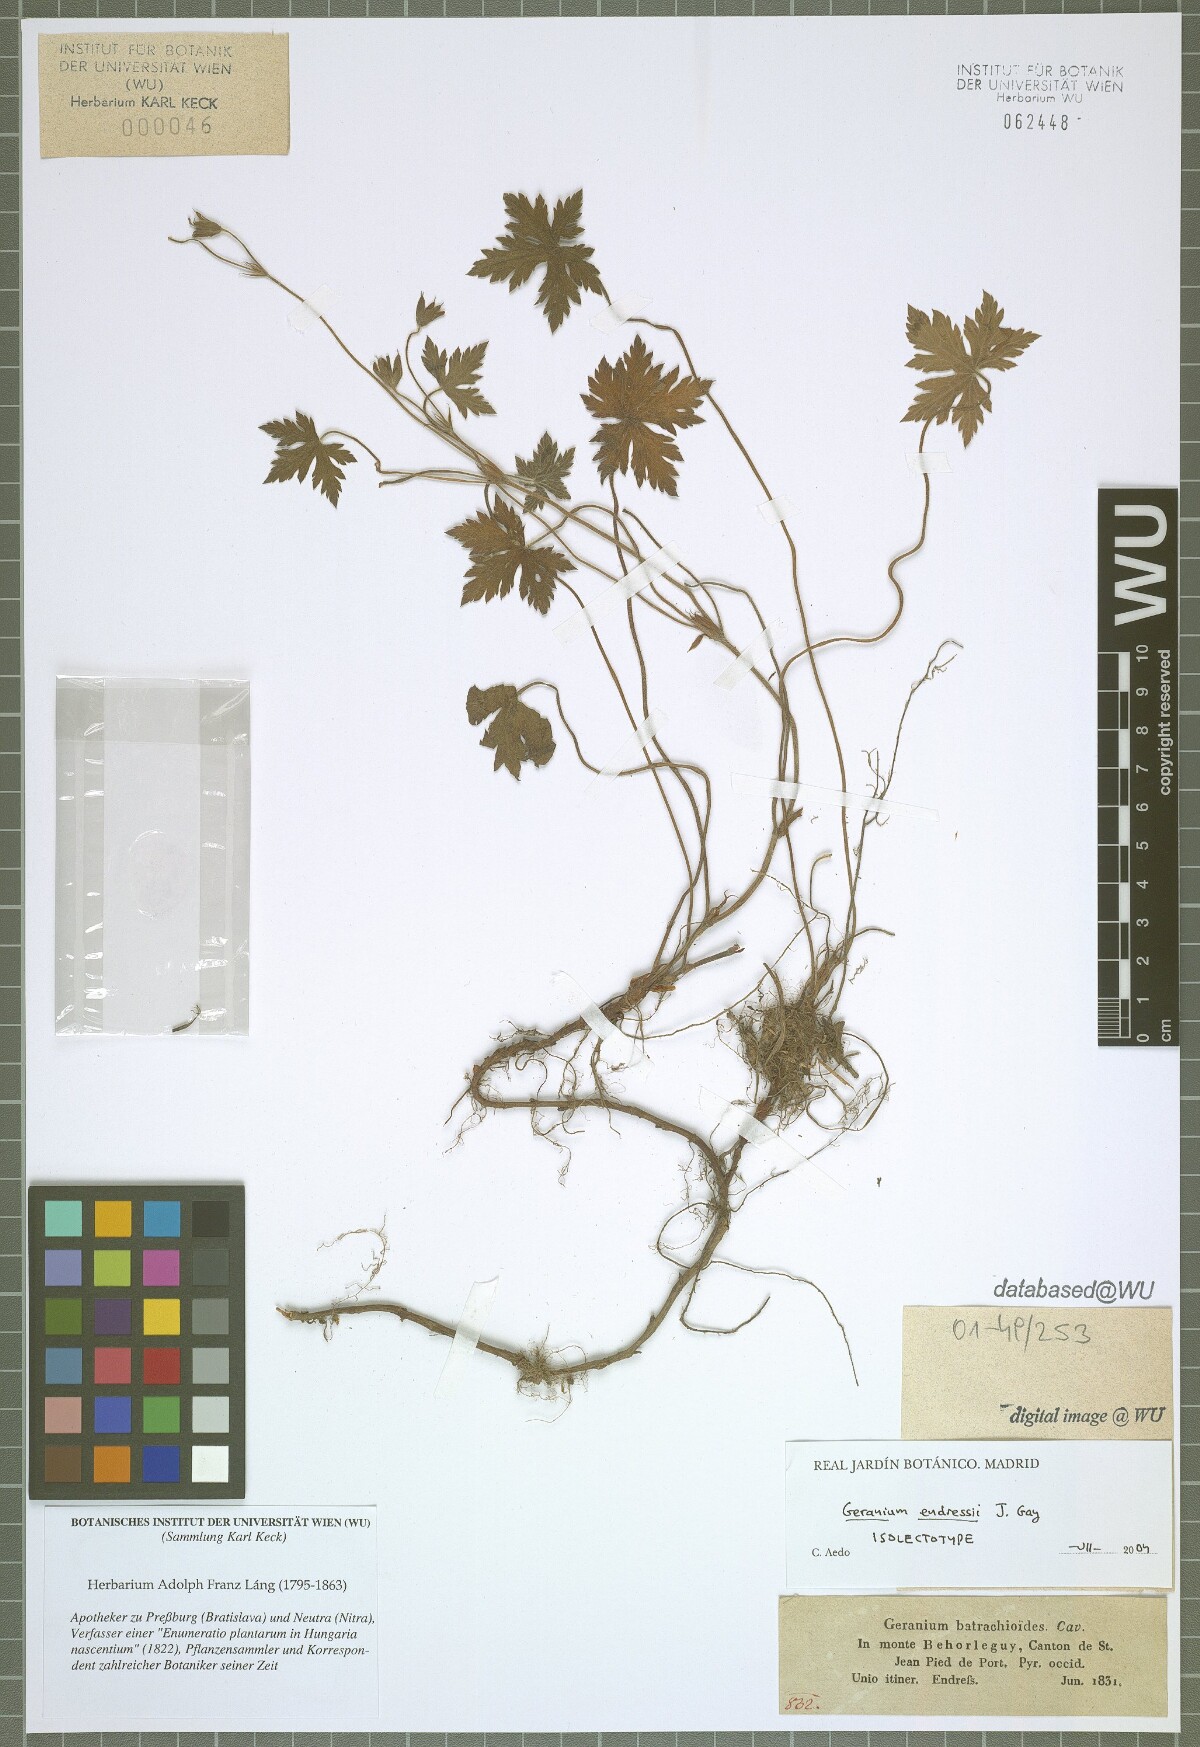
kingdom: Plantae
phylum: Tracheophyta
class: Magnoliopsida
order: Geraniales
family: Geraniaceae
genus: Geranium
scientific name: Geranium endressii
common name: French crane's-bill
